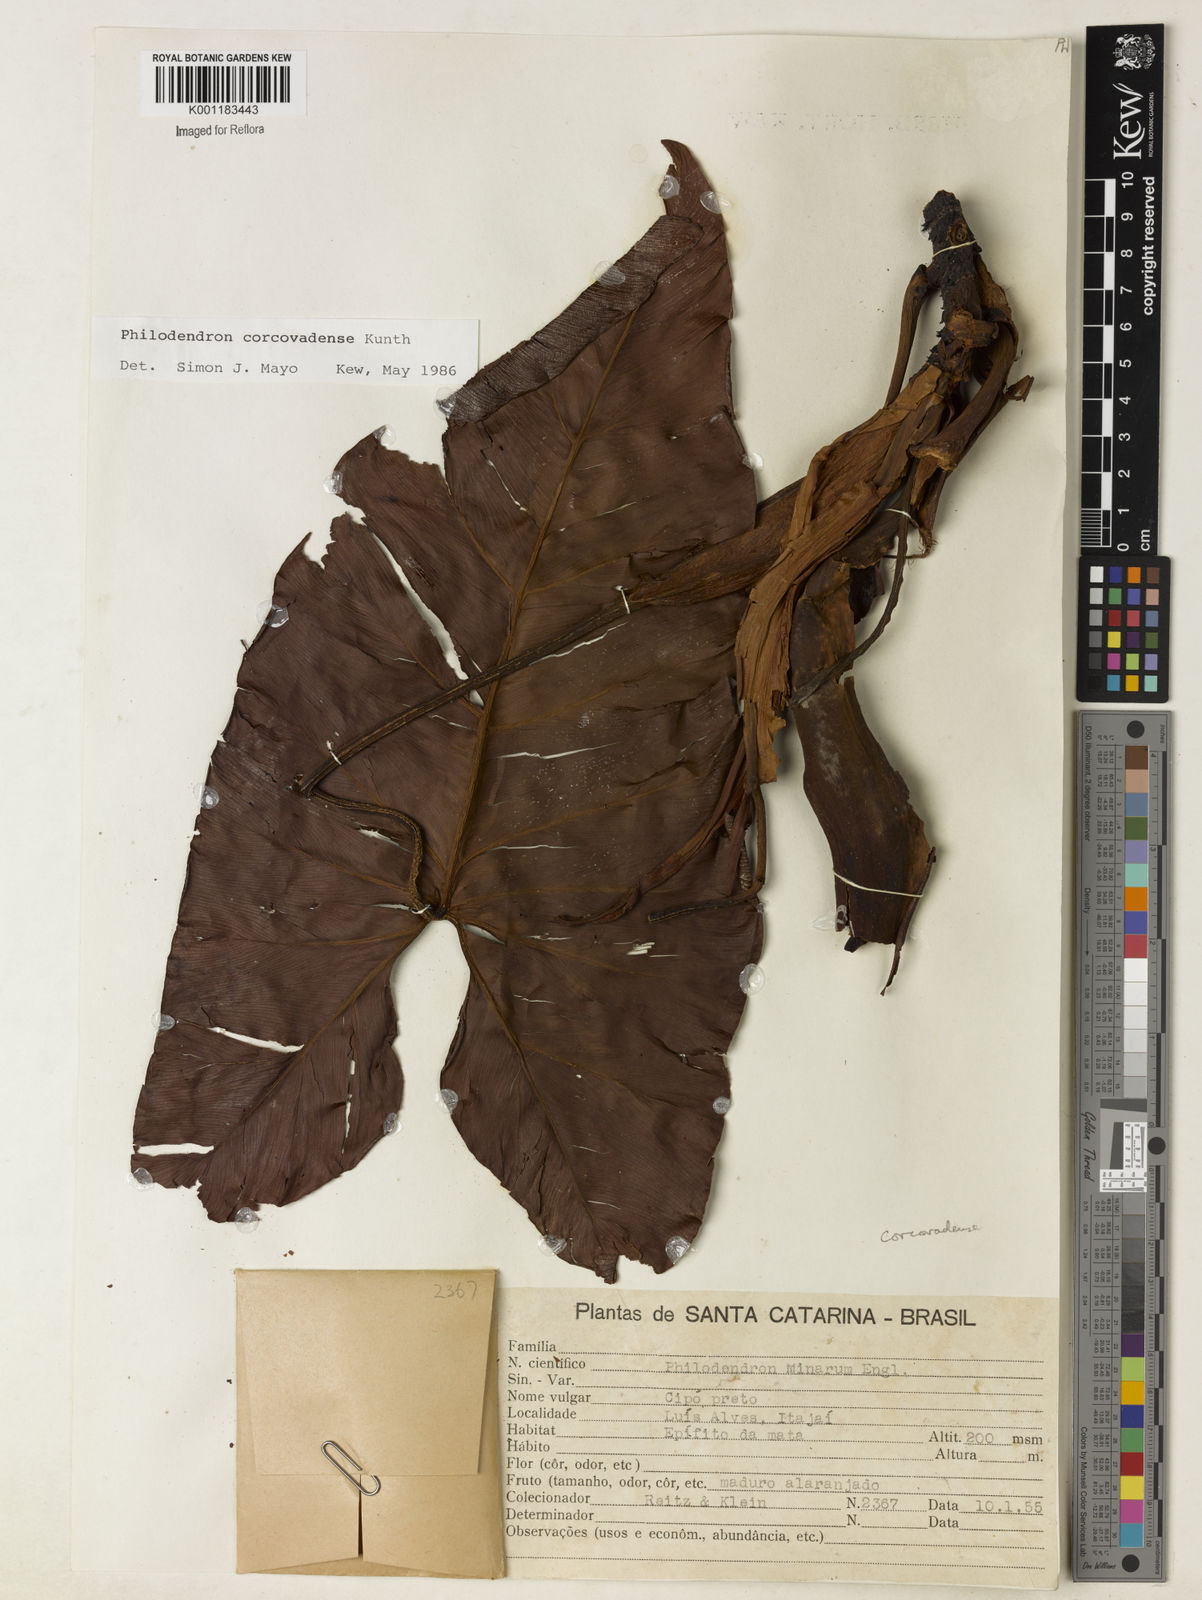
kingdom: Plantae
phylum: Tracheophyta
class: Liliopsida
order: Alismatales
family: Araceae
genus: Thaumatophyllum
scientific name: Thaumatophyllum corcovadense
